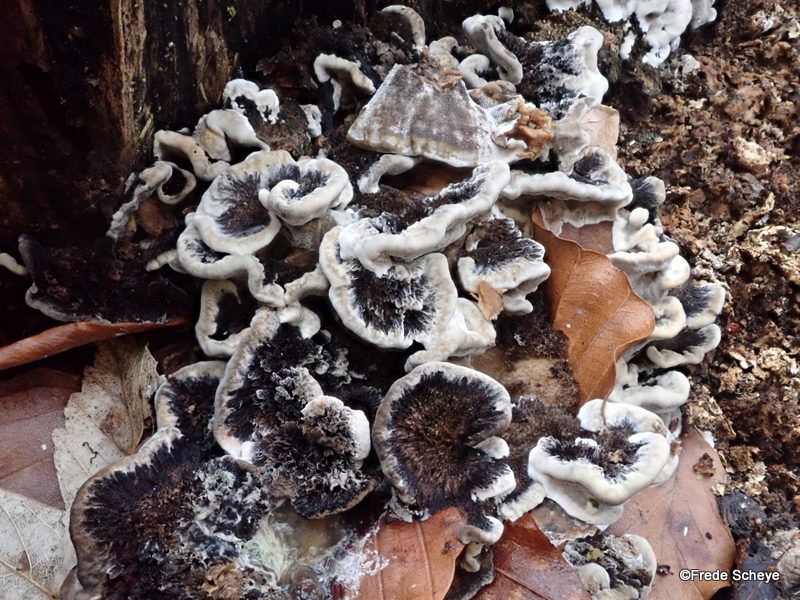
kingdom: Fungi
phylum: Basidiomycota
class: Agaricomycetes
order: Polyporales
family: Phanerochaetaceae
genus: Bjerkandera
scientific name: Bjerkandera adusta
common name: sveden sodporesvamp
